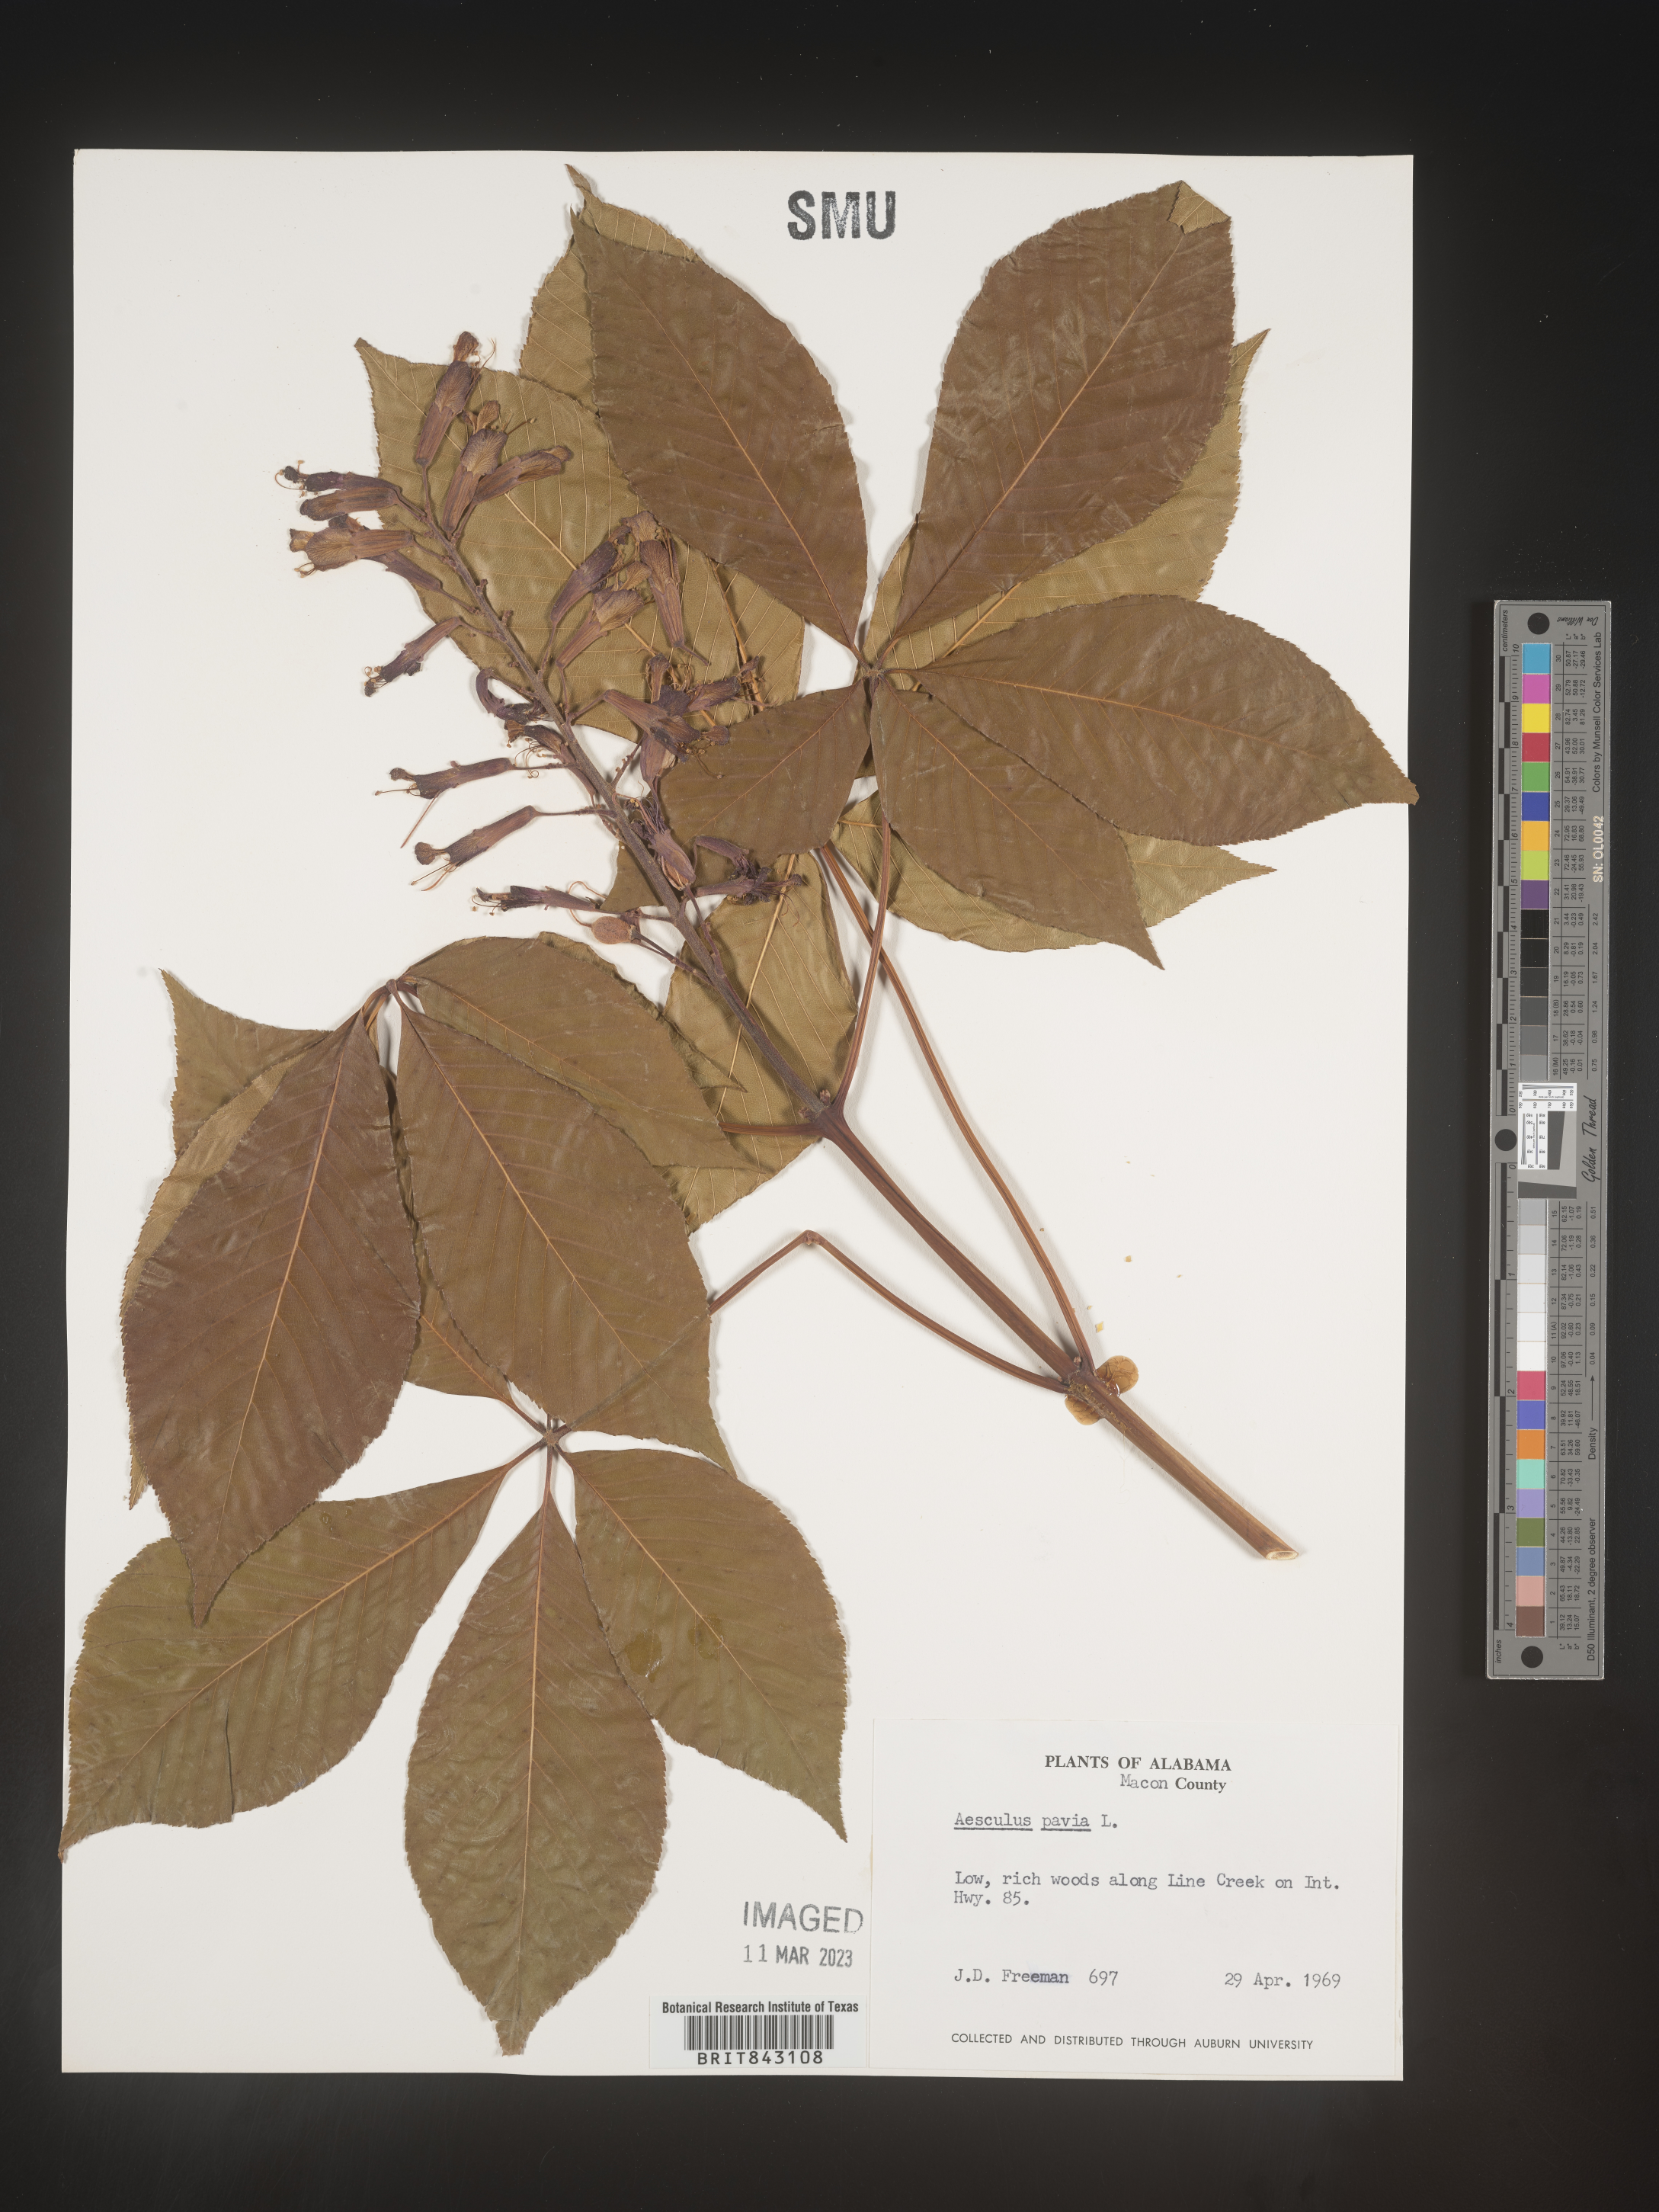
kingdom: Plantae
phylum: Tracheophyta
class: Magnoliopsida
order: Sapindales
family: Sapindaceae
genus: Aesculus
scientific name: Aesculus pavia
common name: Red buckeye
